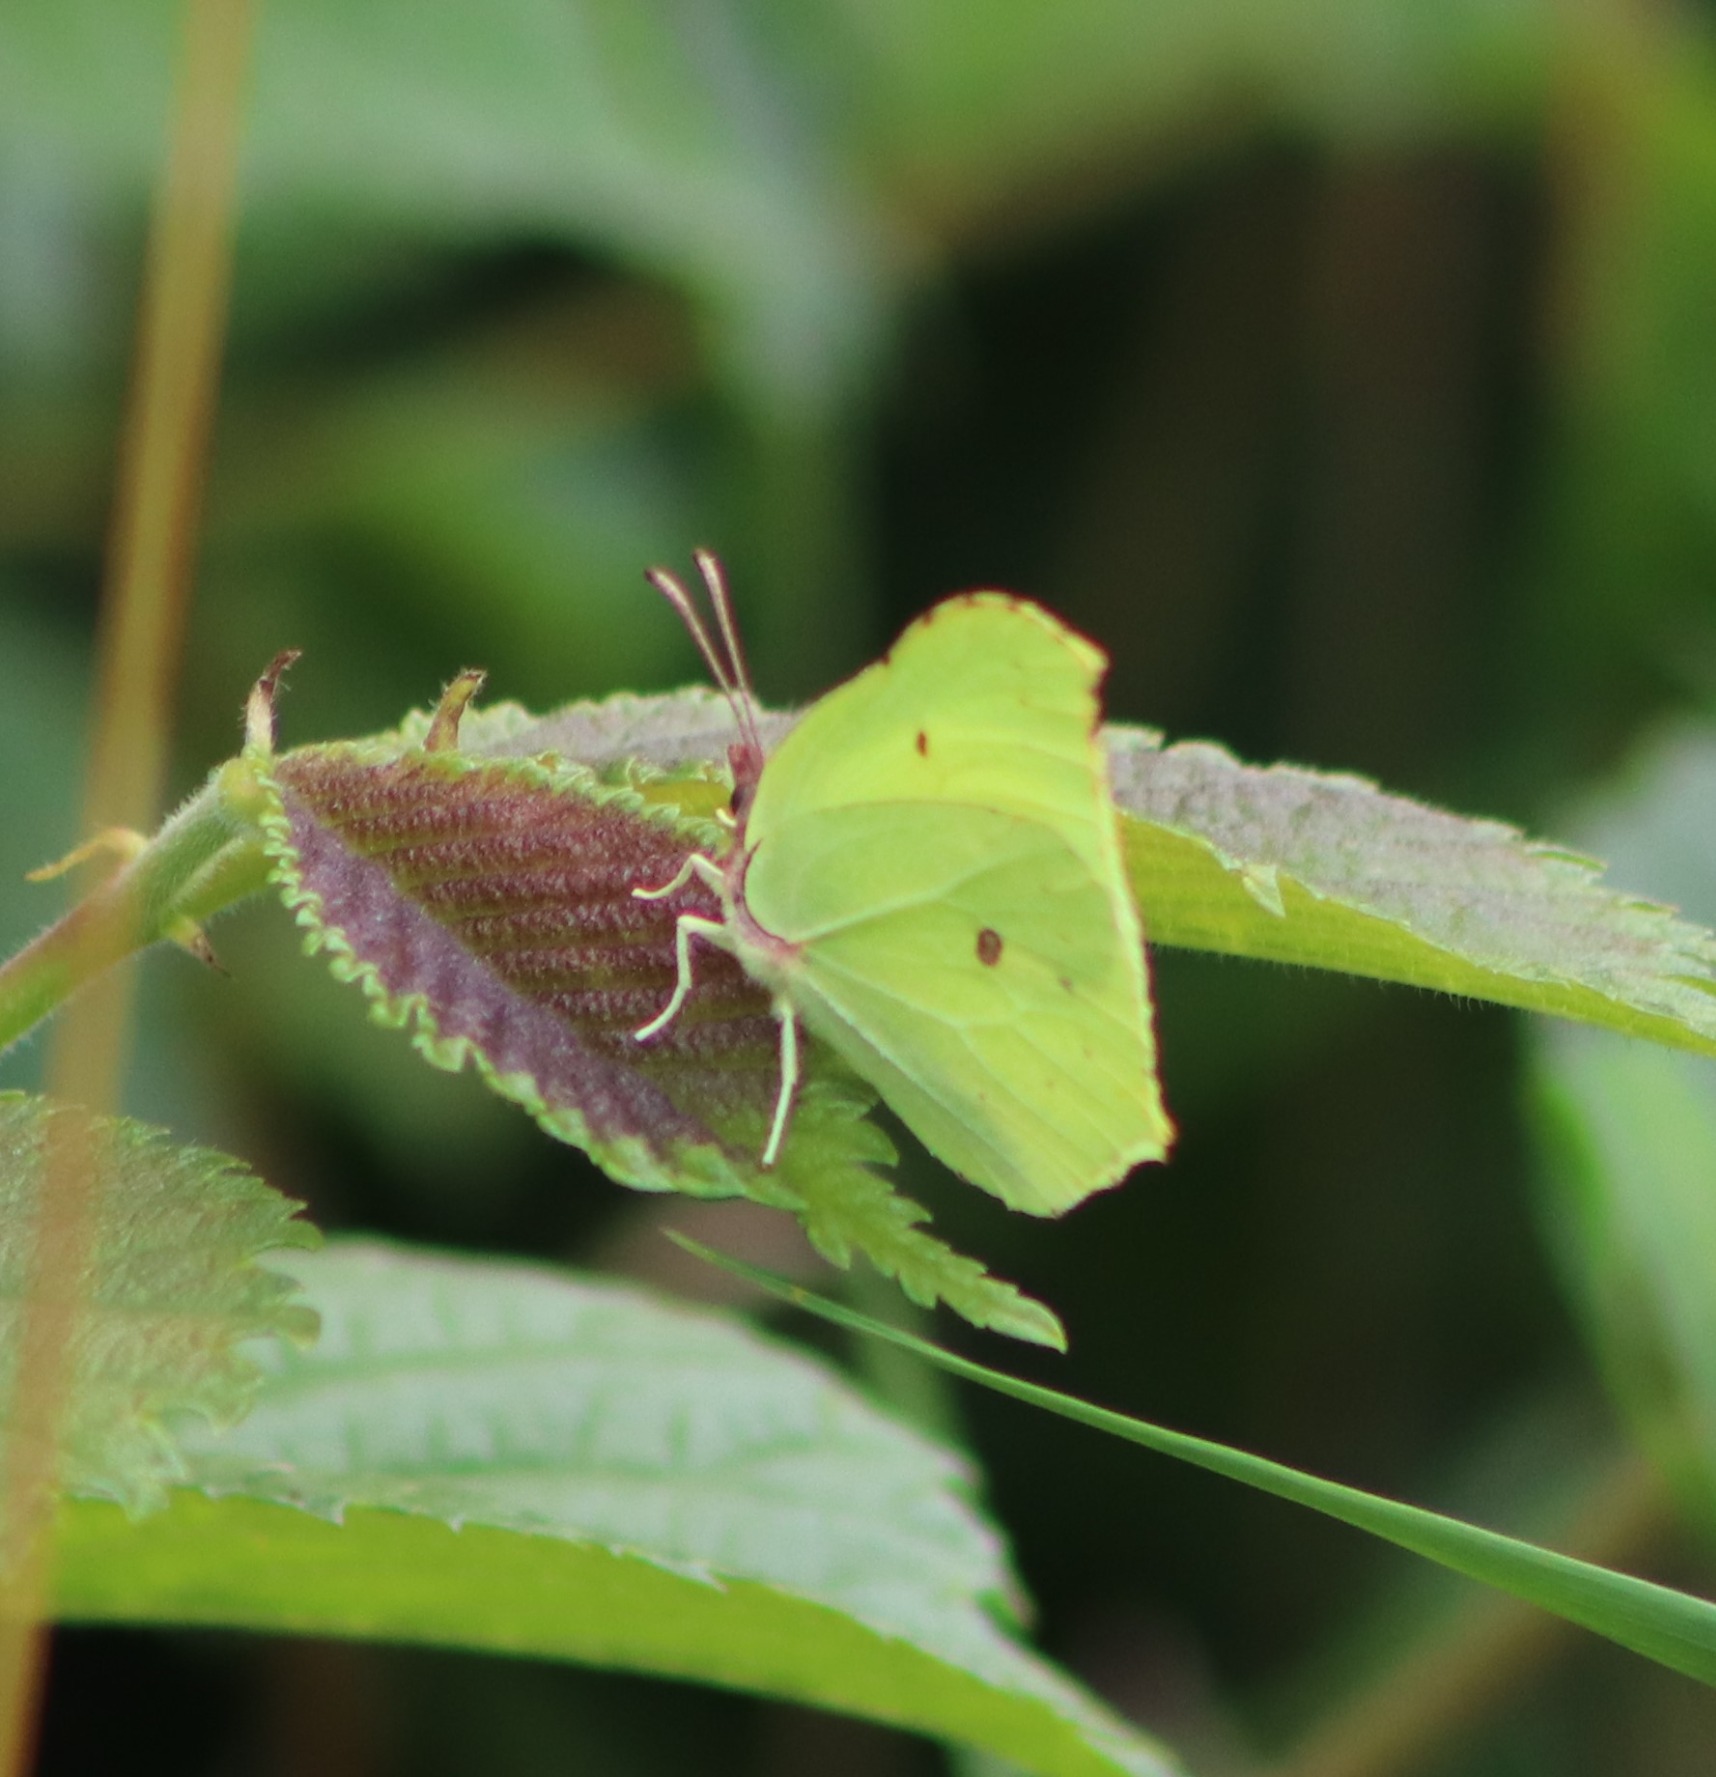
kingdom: Animalia
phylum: Arthropoda
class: Insecta
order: Lepidoptera
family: Pieridae
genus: Gonepteryx
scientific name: Gonepteryx rhamni
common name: Citronsommerfugl
